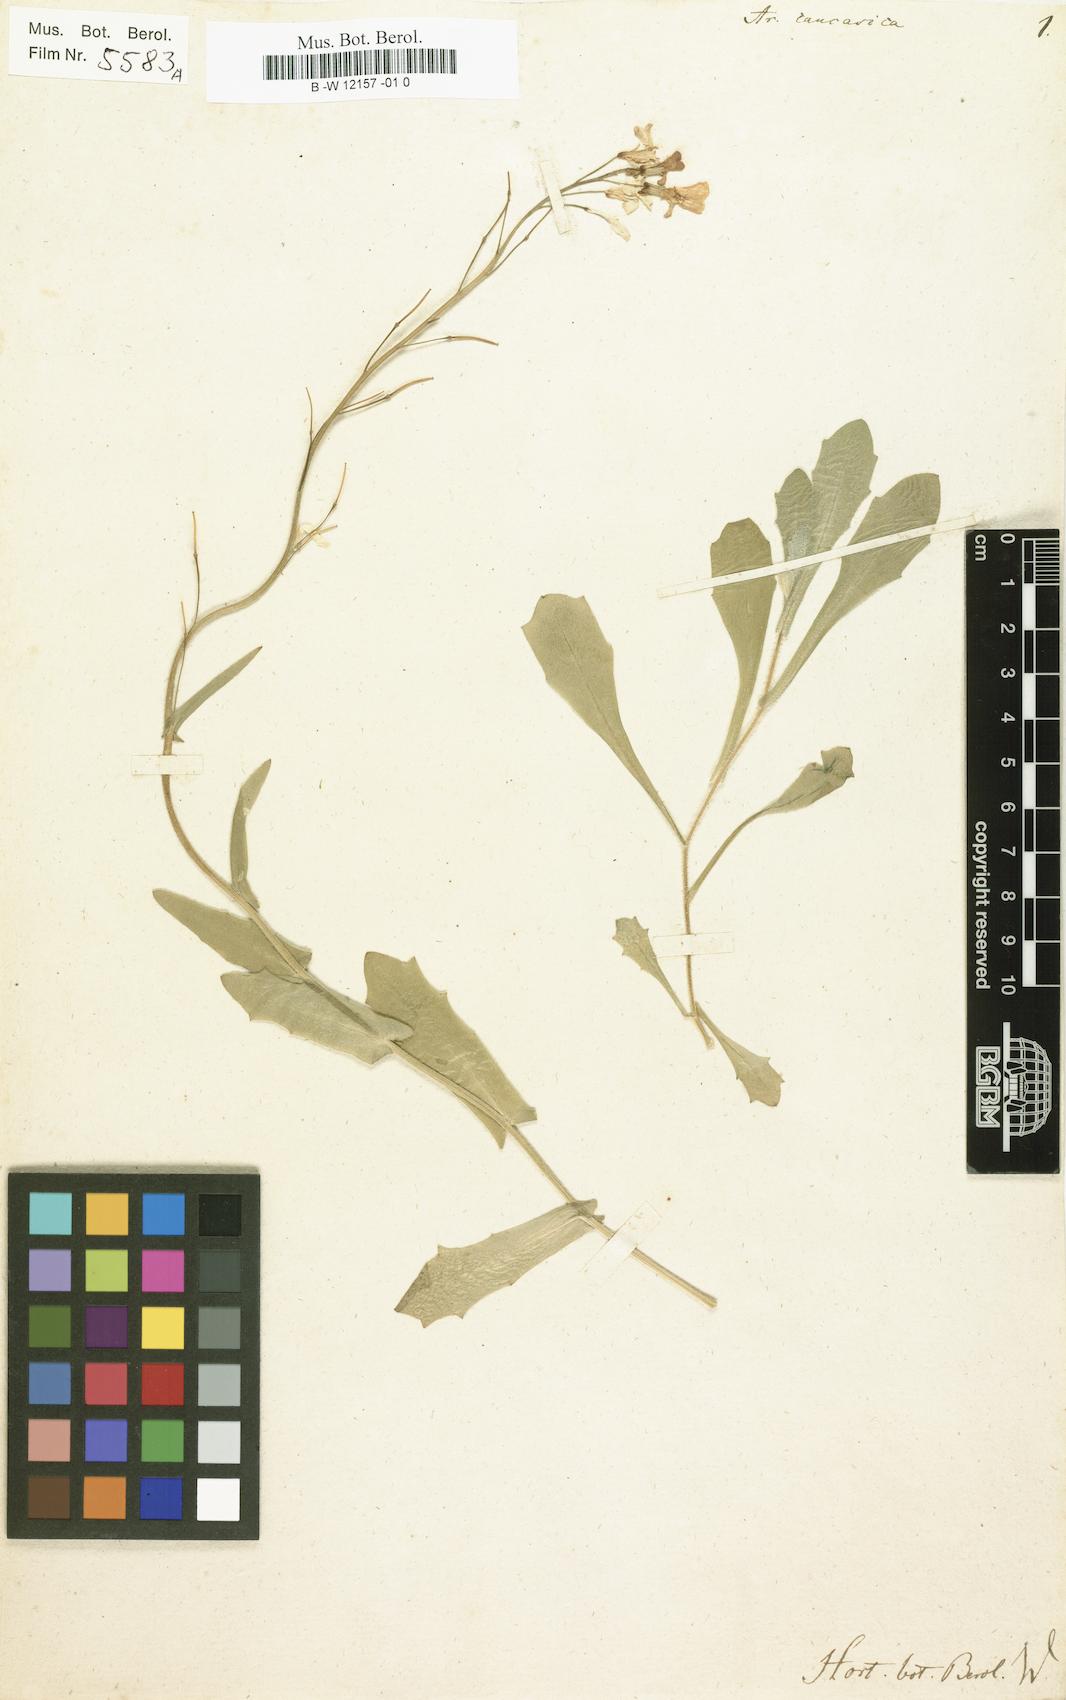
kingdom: Plantae
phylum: Tracheophyta
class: Magnoliopsida
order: Brassicales
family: Brassicaceae
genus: Arabis
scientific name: Arabis caucasica
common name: Gray rockcress
